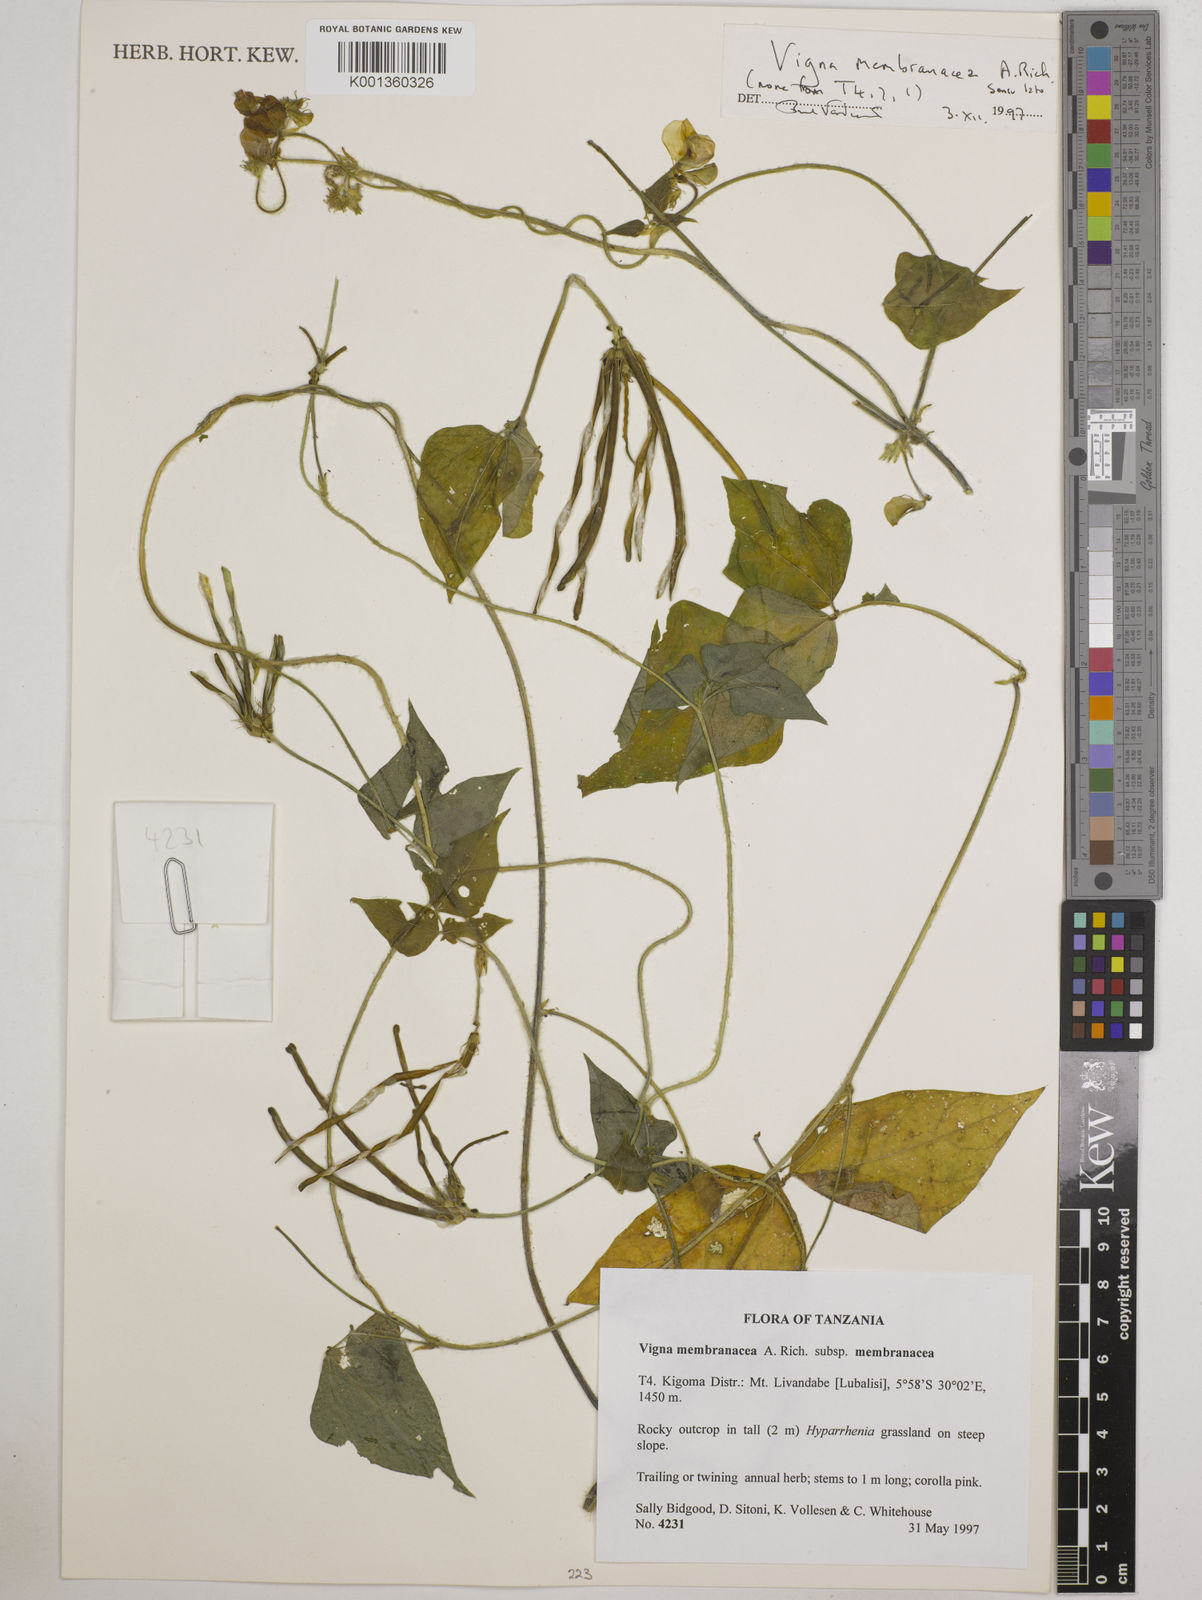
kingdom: Plantae
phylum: Tracheophyta
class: Magnoliopsida
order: Fabales
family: Fabaceae
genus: Vigna
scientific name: Vigna membranacea
